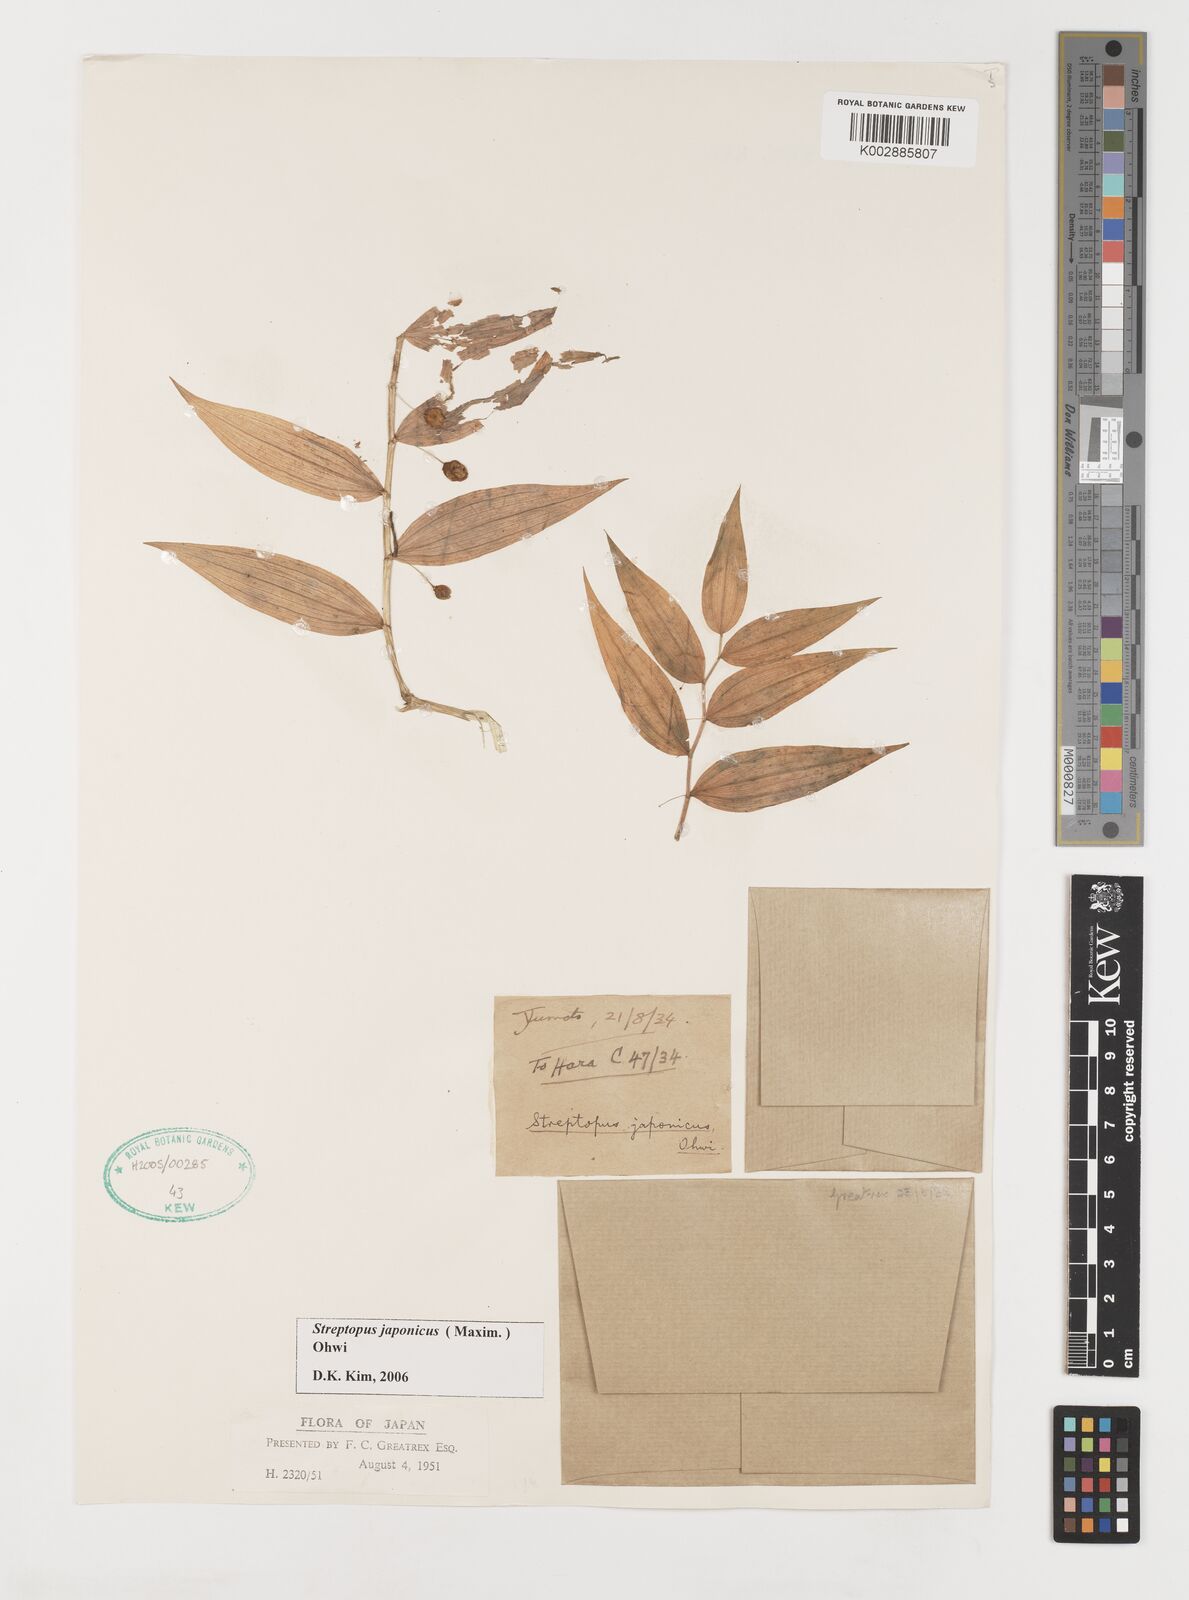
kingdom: Plantae
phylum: Tracheophyta
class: Liliopsida
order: Liliales
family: Liliaceae
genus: Streptopus
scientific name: Streptopus streptopoides
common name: Small twisted-stalk
